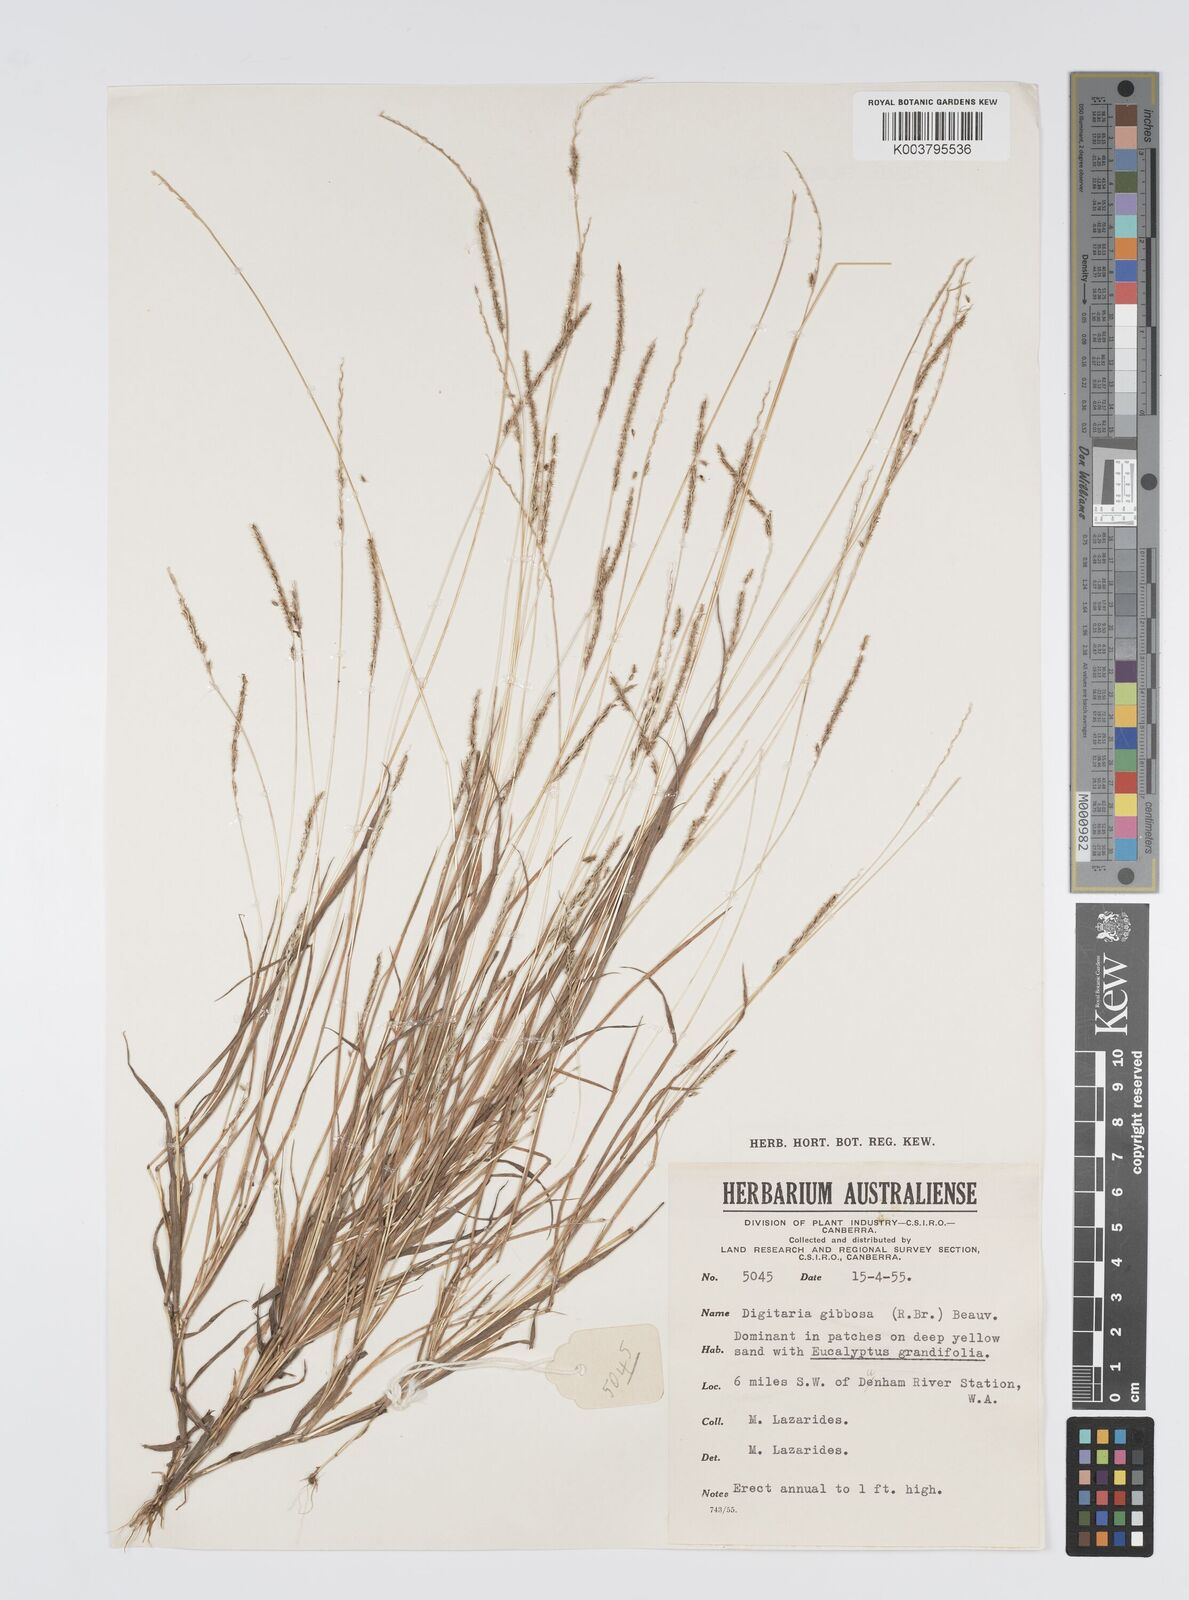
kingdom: Plantae
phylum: Tracheophyta
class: Liliopsida
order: Poales
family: Poaceae
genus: Digitaria
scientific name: Digitaria gibbosa
